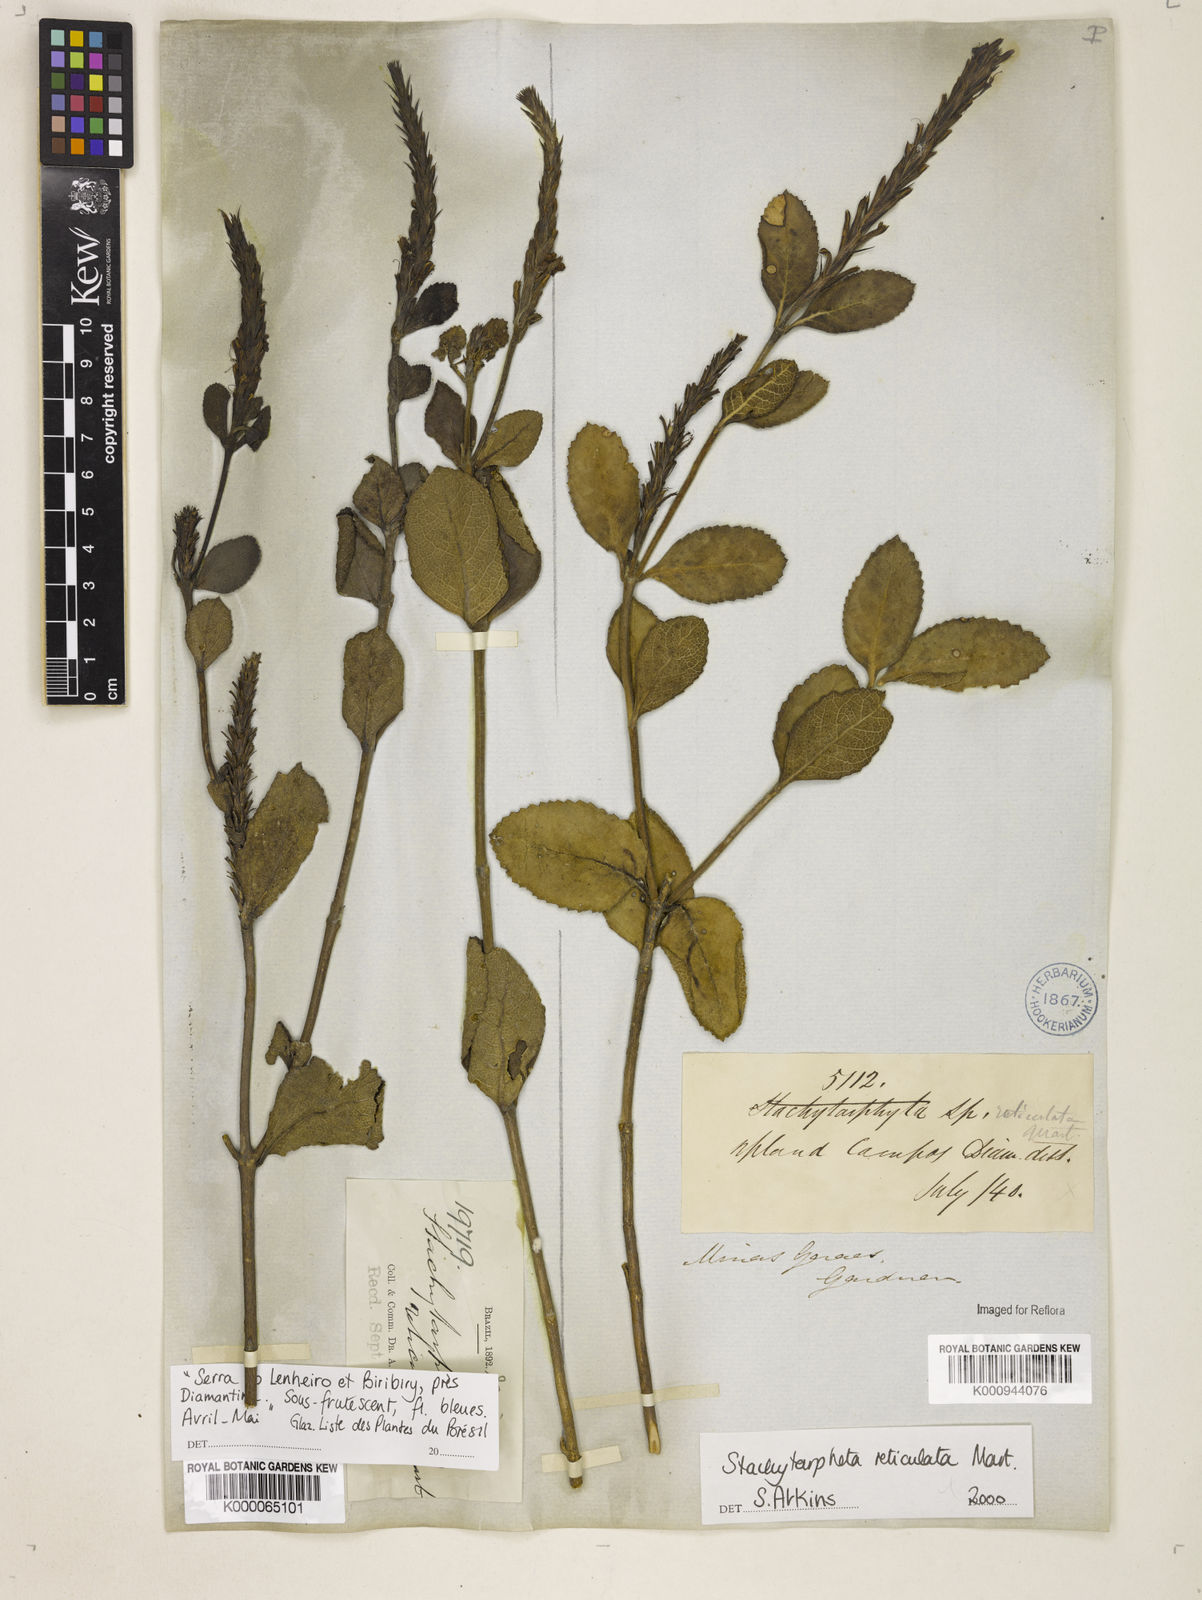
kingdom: Plantae
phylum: Tracheophyta
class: Magnoliopsida
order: Lamiales
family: Verbenaceae
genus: Stachytarpheta
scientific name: Stachytarpheta
